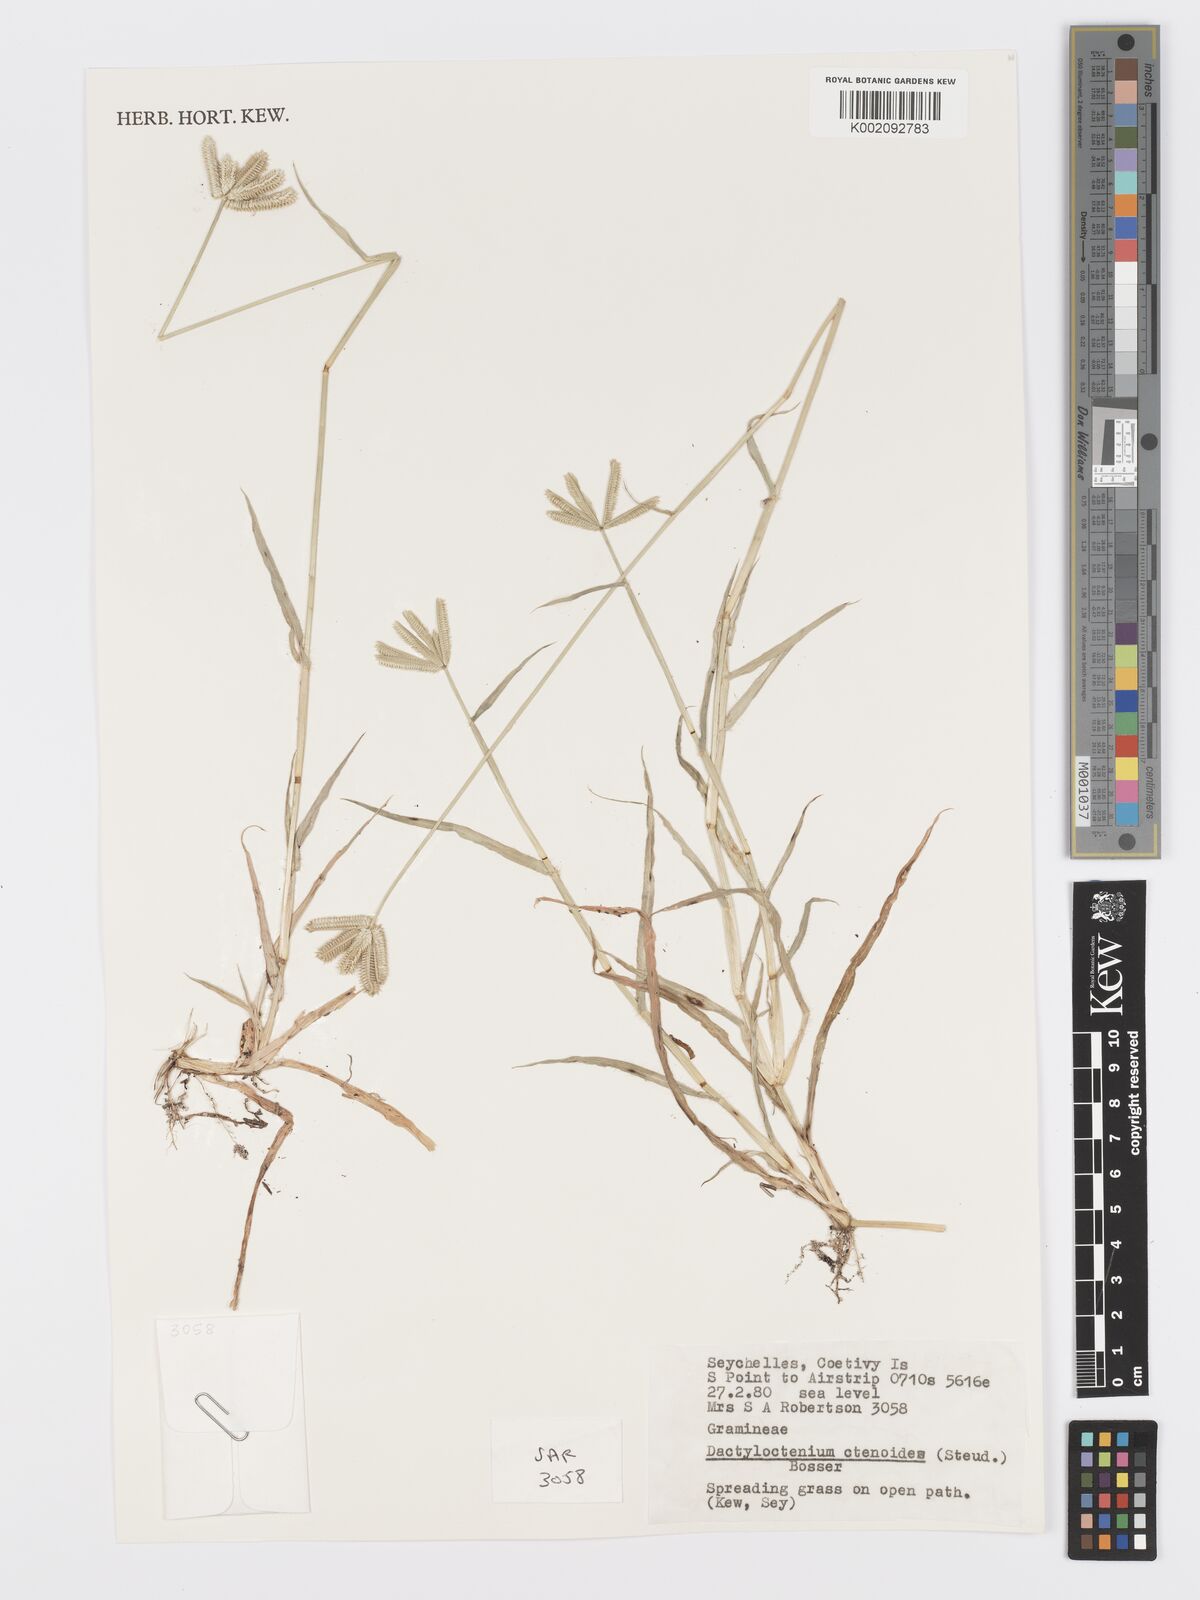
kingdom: Plantae
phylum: Tracheophyta
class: Liliopsida
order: Poales
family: Poaceae
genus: Dactyloctenium
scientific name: Dactyloctenium ctenoides
